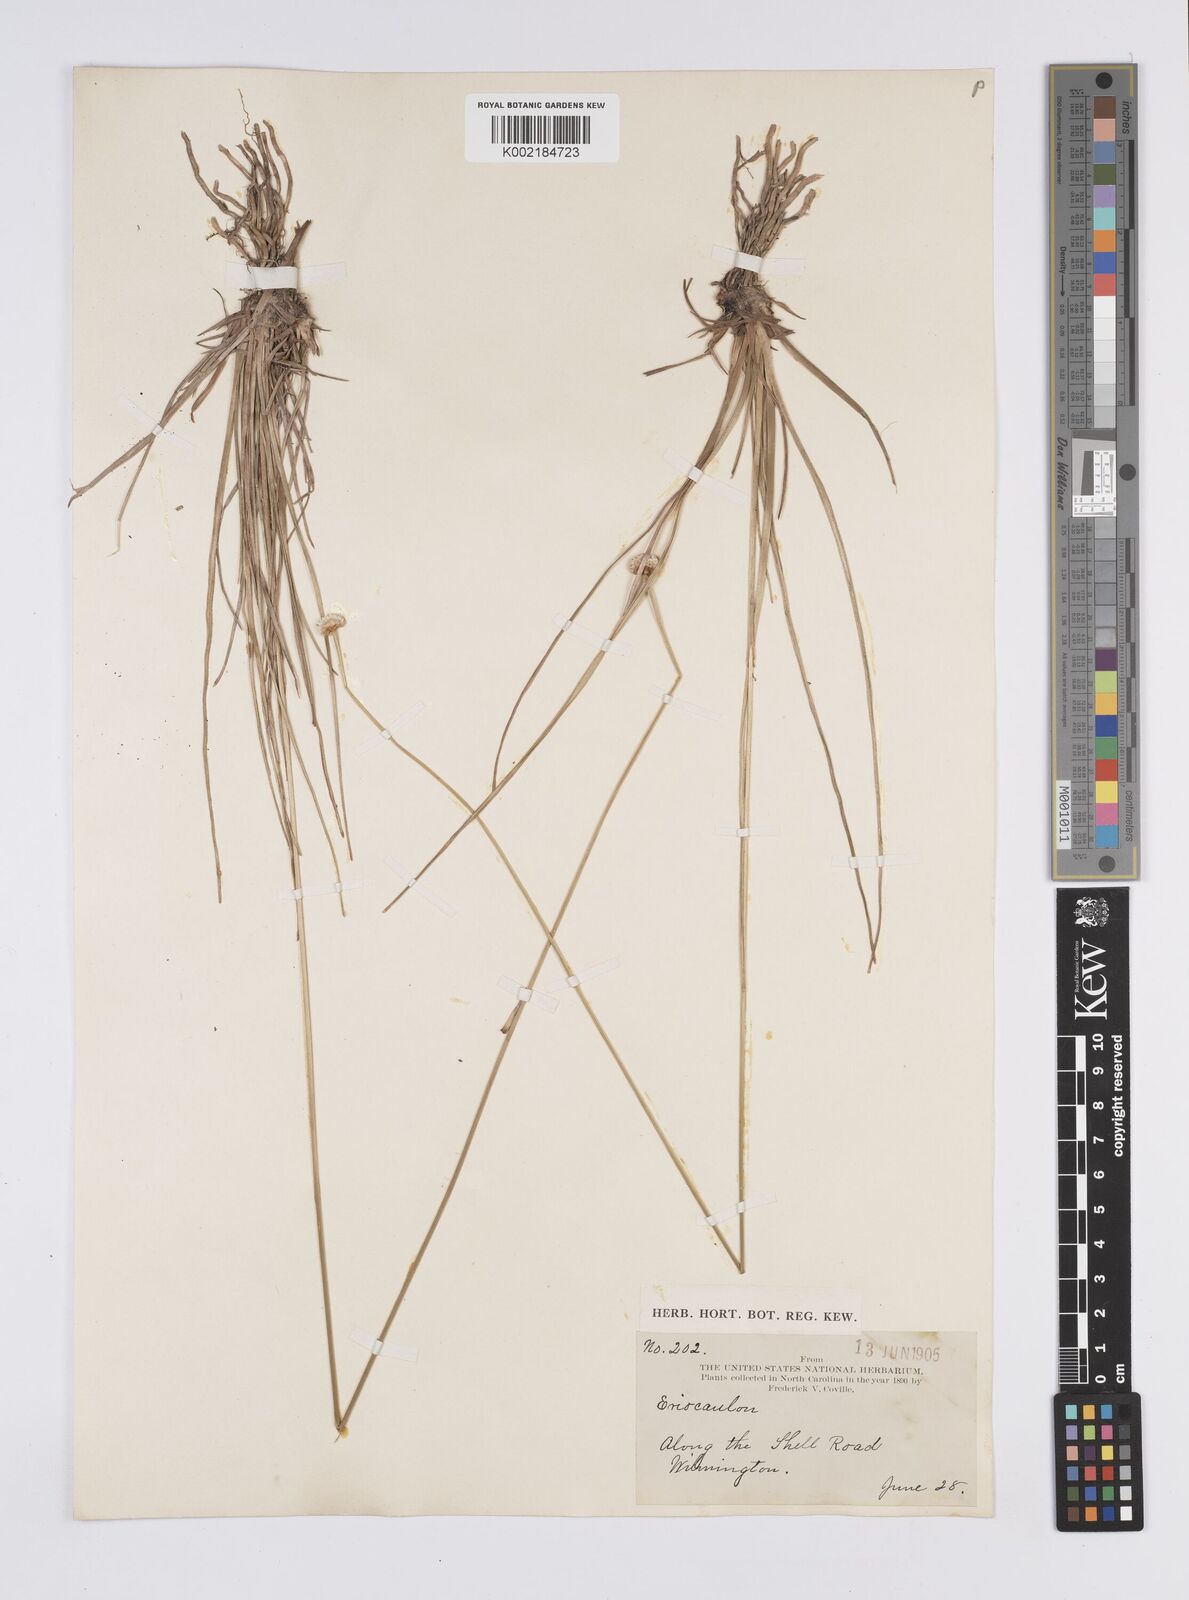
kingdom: Plantae
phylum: Tracheophyta
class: Liliopsida
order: Poales
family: Eriocaulaceae
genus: Eriocaulon
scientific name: Eriocaulon
